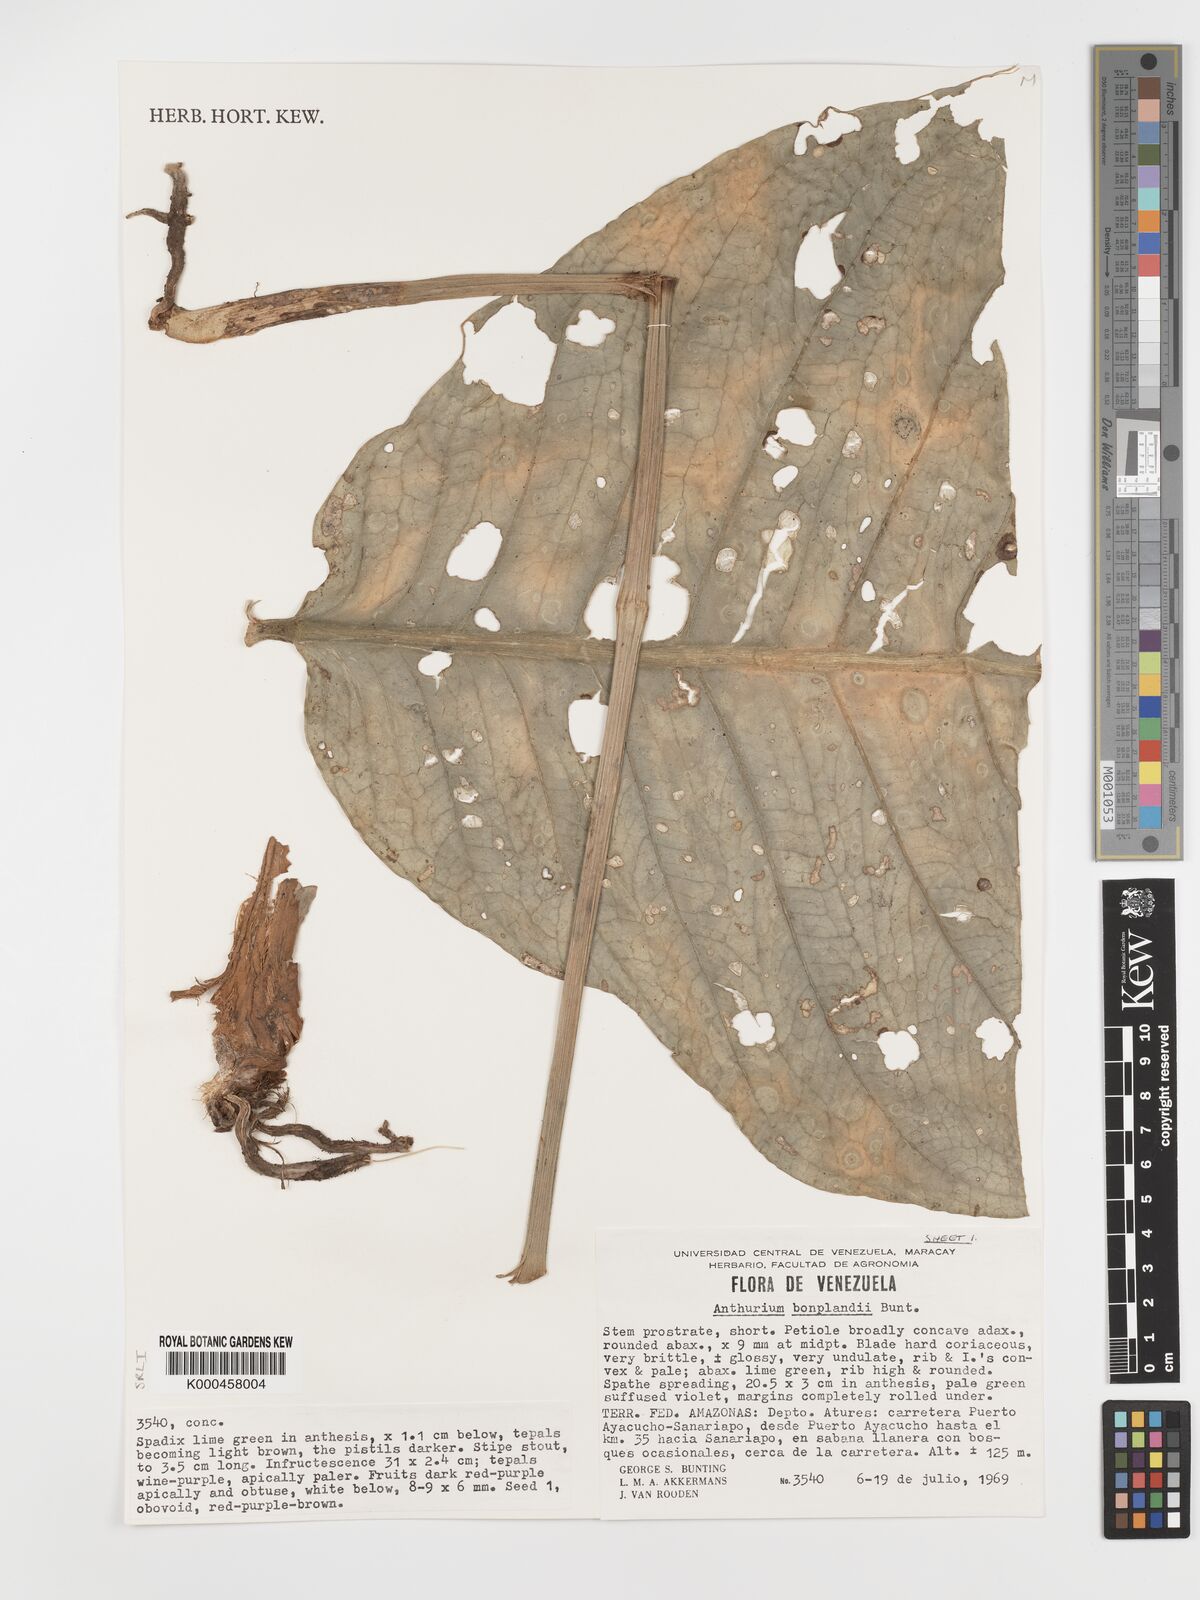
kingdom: Plantae
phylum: Tracheophyta
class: Liliopsida
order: Alismatales
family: Araceae
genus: Anthurium
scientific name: Anthurium bonplandii
